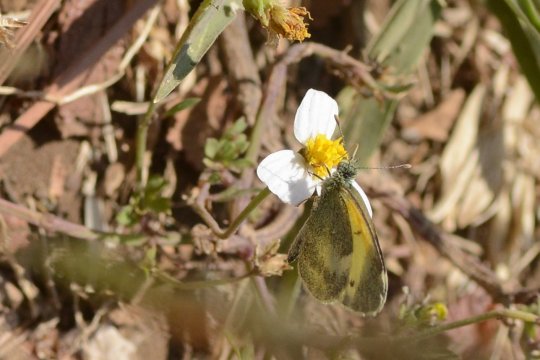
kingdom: Animalia
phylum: Arthropoda
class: Insecta
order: Lepidoptera
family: Pieridae
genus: Nathalis
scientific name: Nathalis iole
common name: Dainty Sulphur
